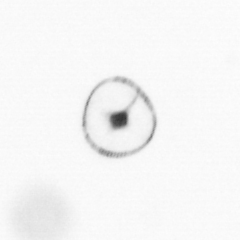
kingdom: Chromista
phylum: Myzozoa
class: Dinophyceae
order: Noctilucales
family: Noctilucaceae
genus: Noctiluca
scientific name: Noctiluca scintillans
